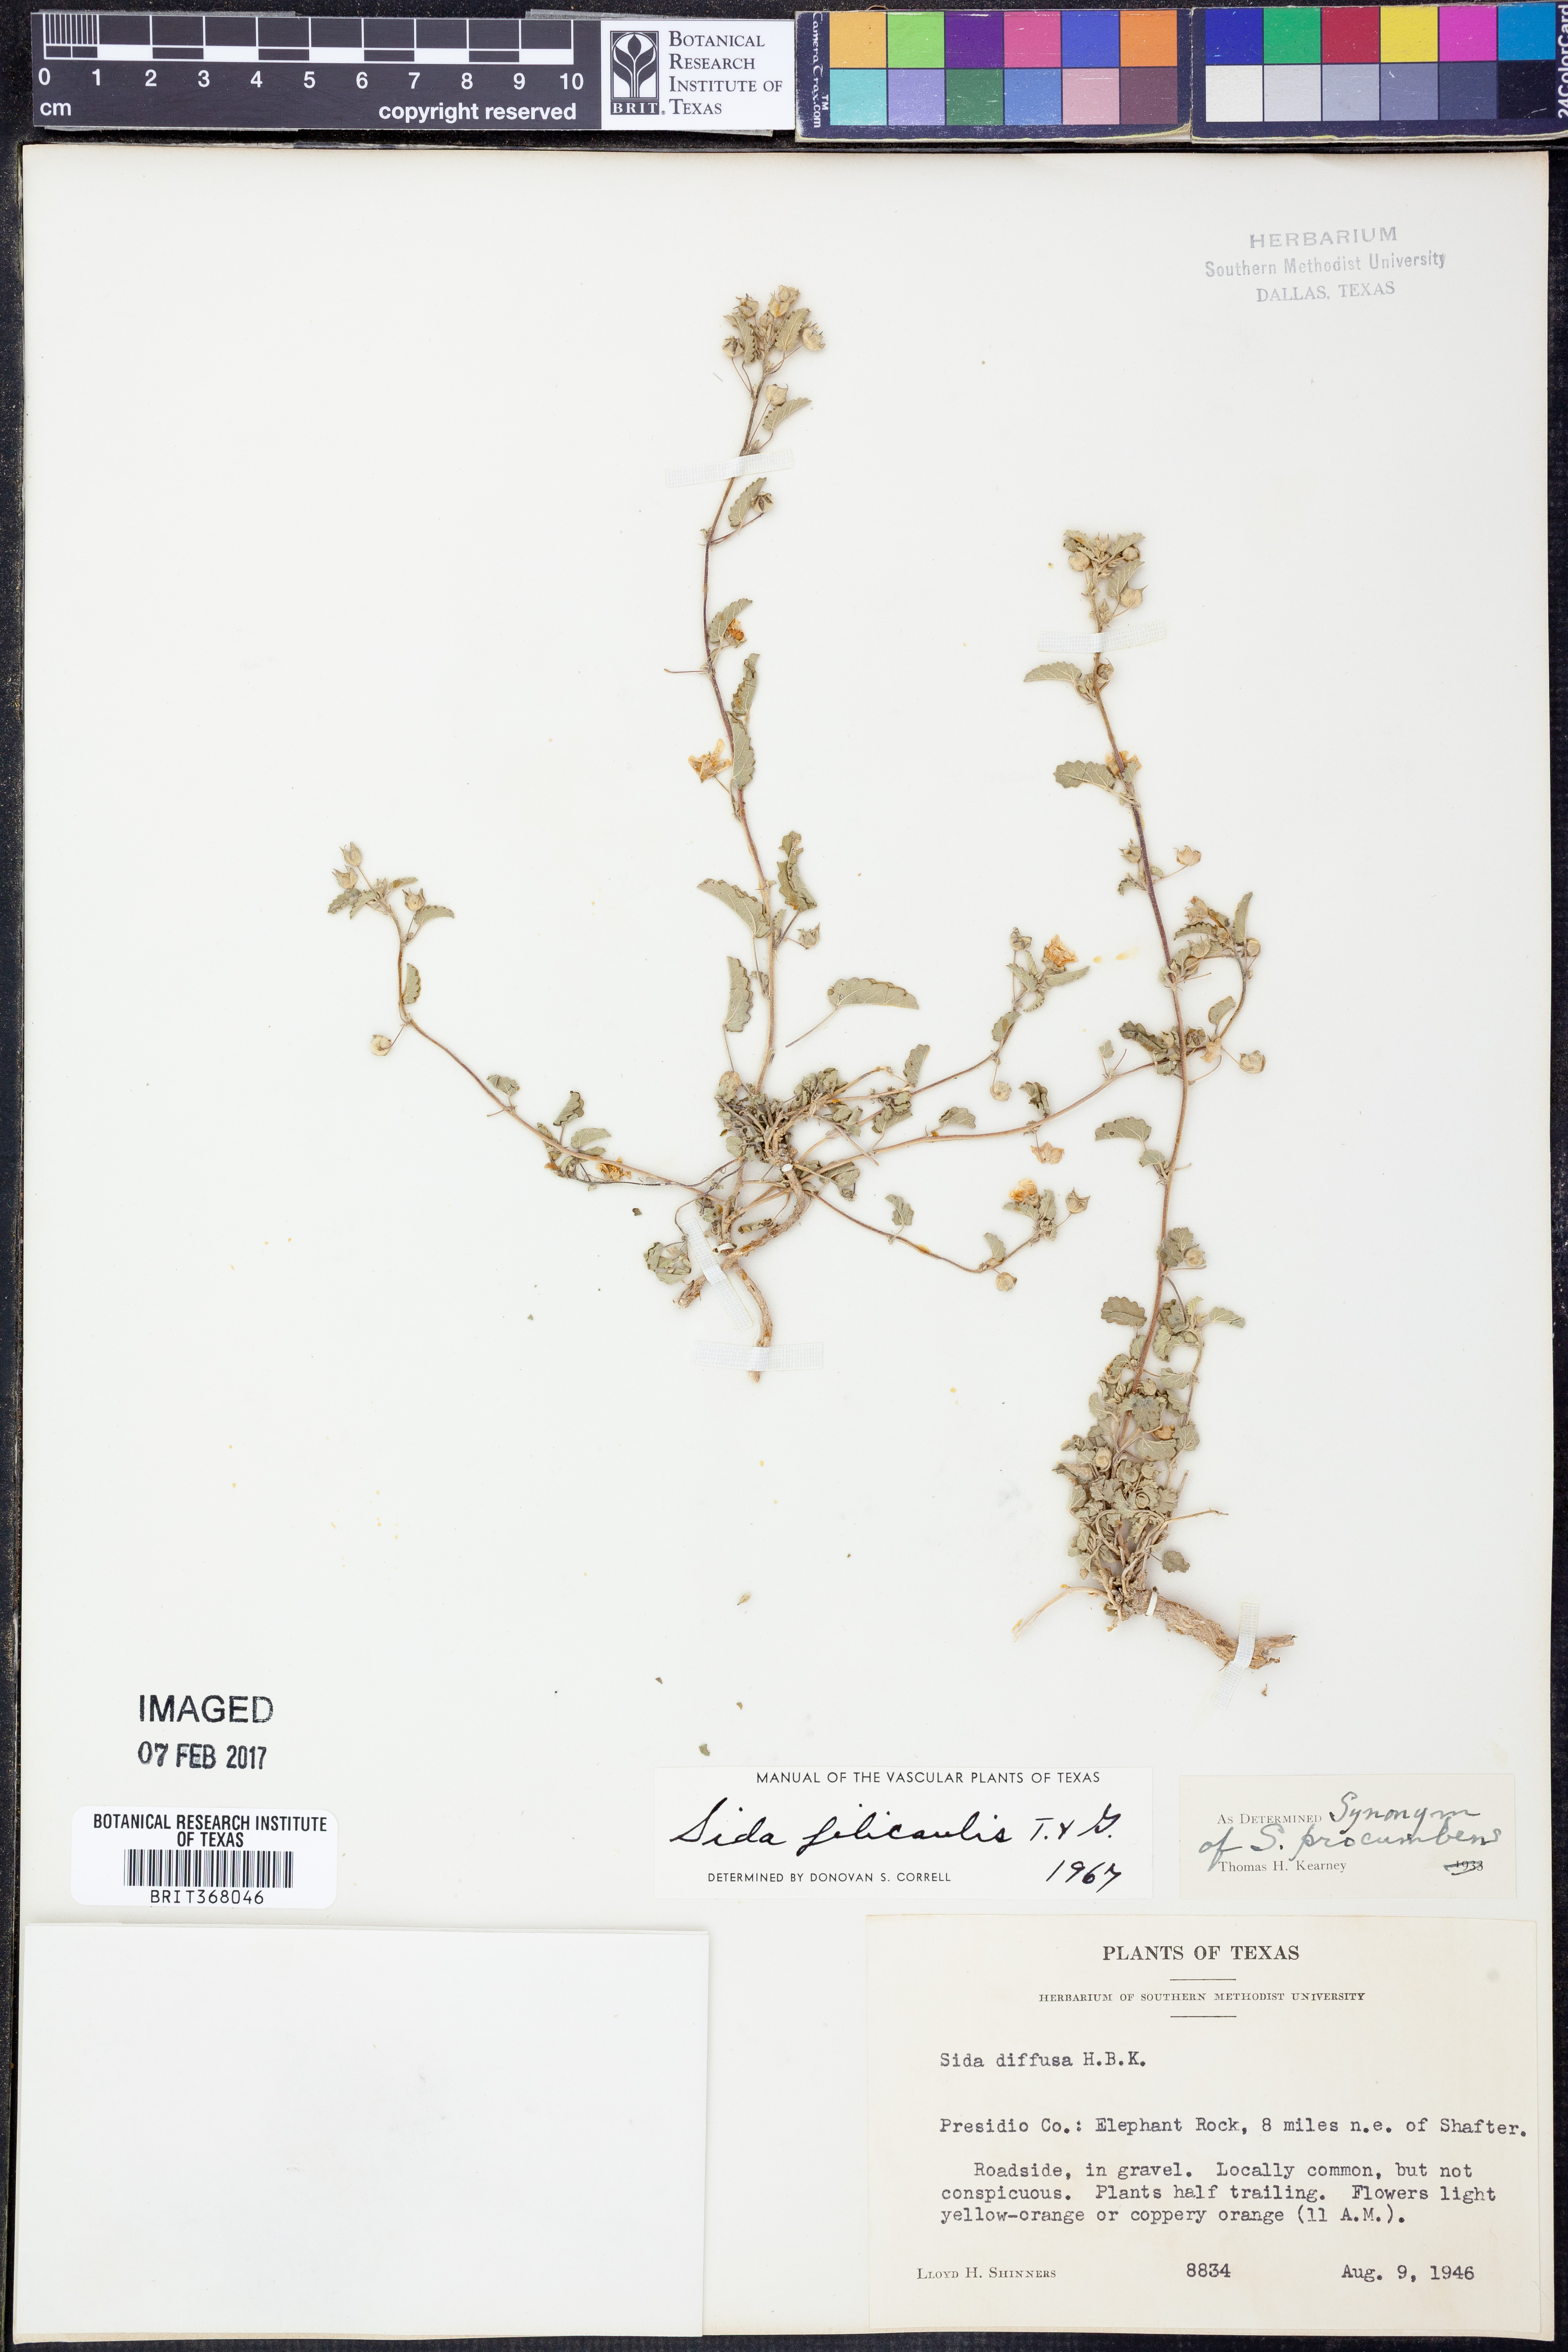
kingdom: Plantae
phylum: Tracheophyta
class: Magnoliopsida
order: Malvales
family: Malvaceae
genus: Sida
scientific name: Sida abutilifolia
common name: Spreading fanpetals
